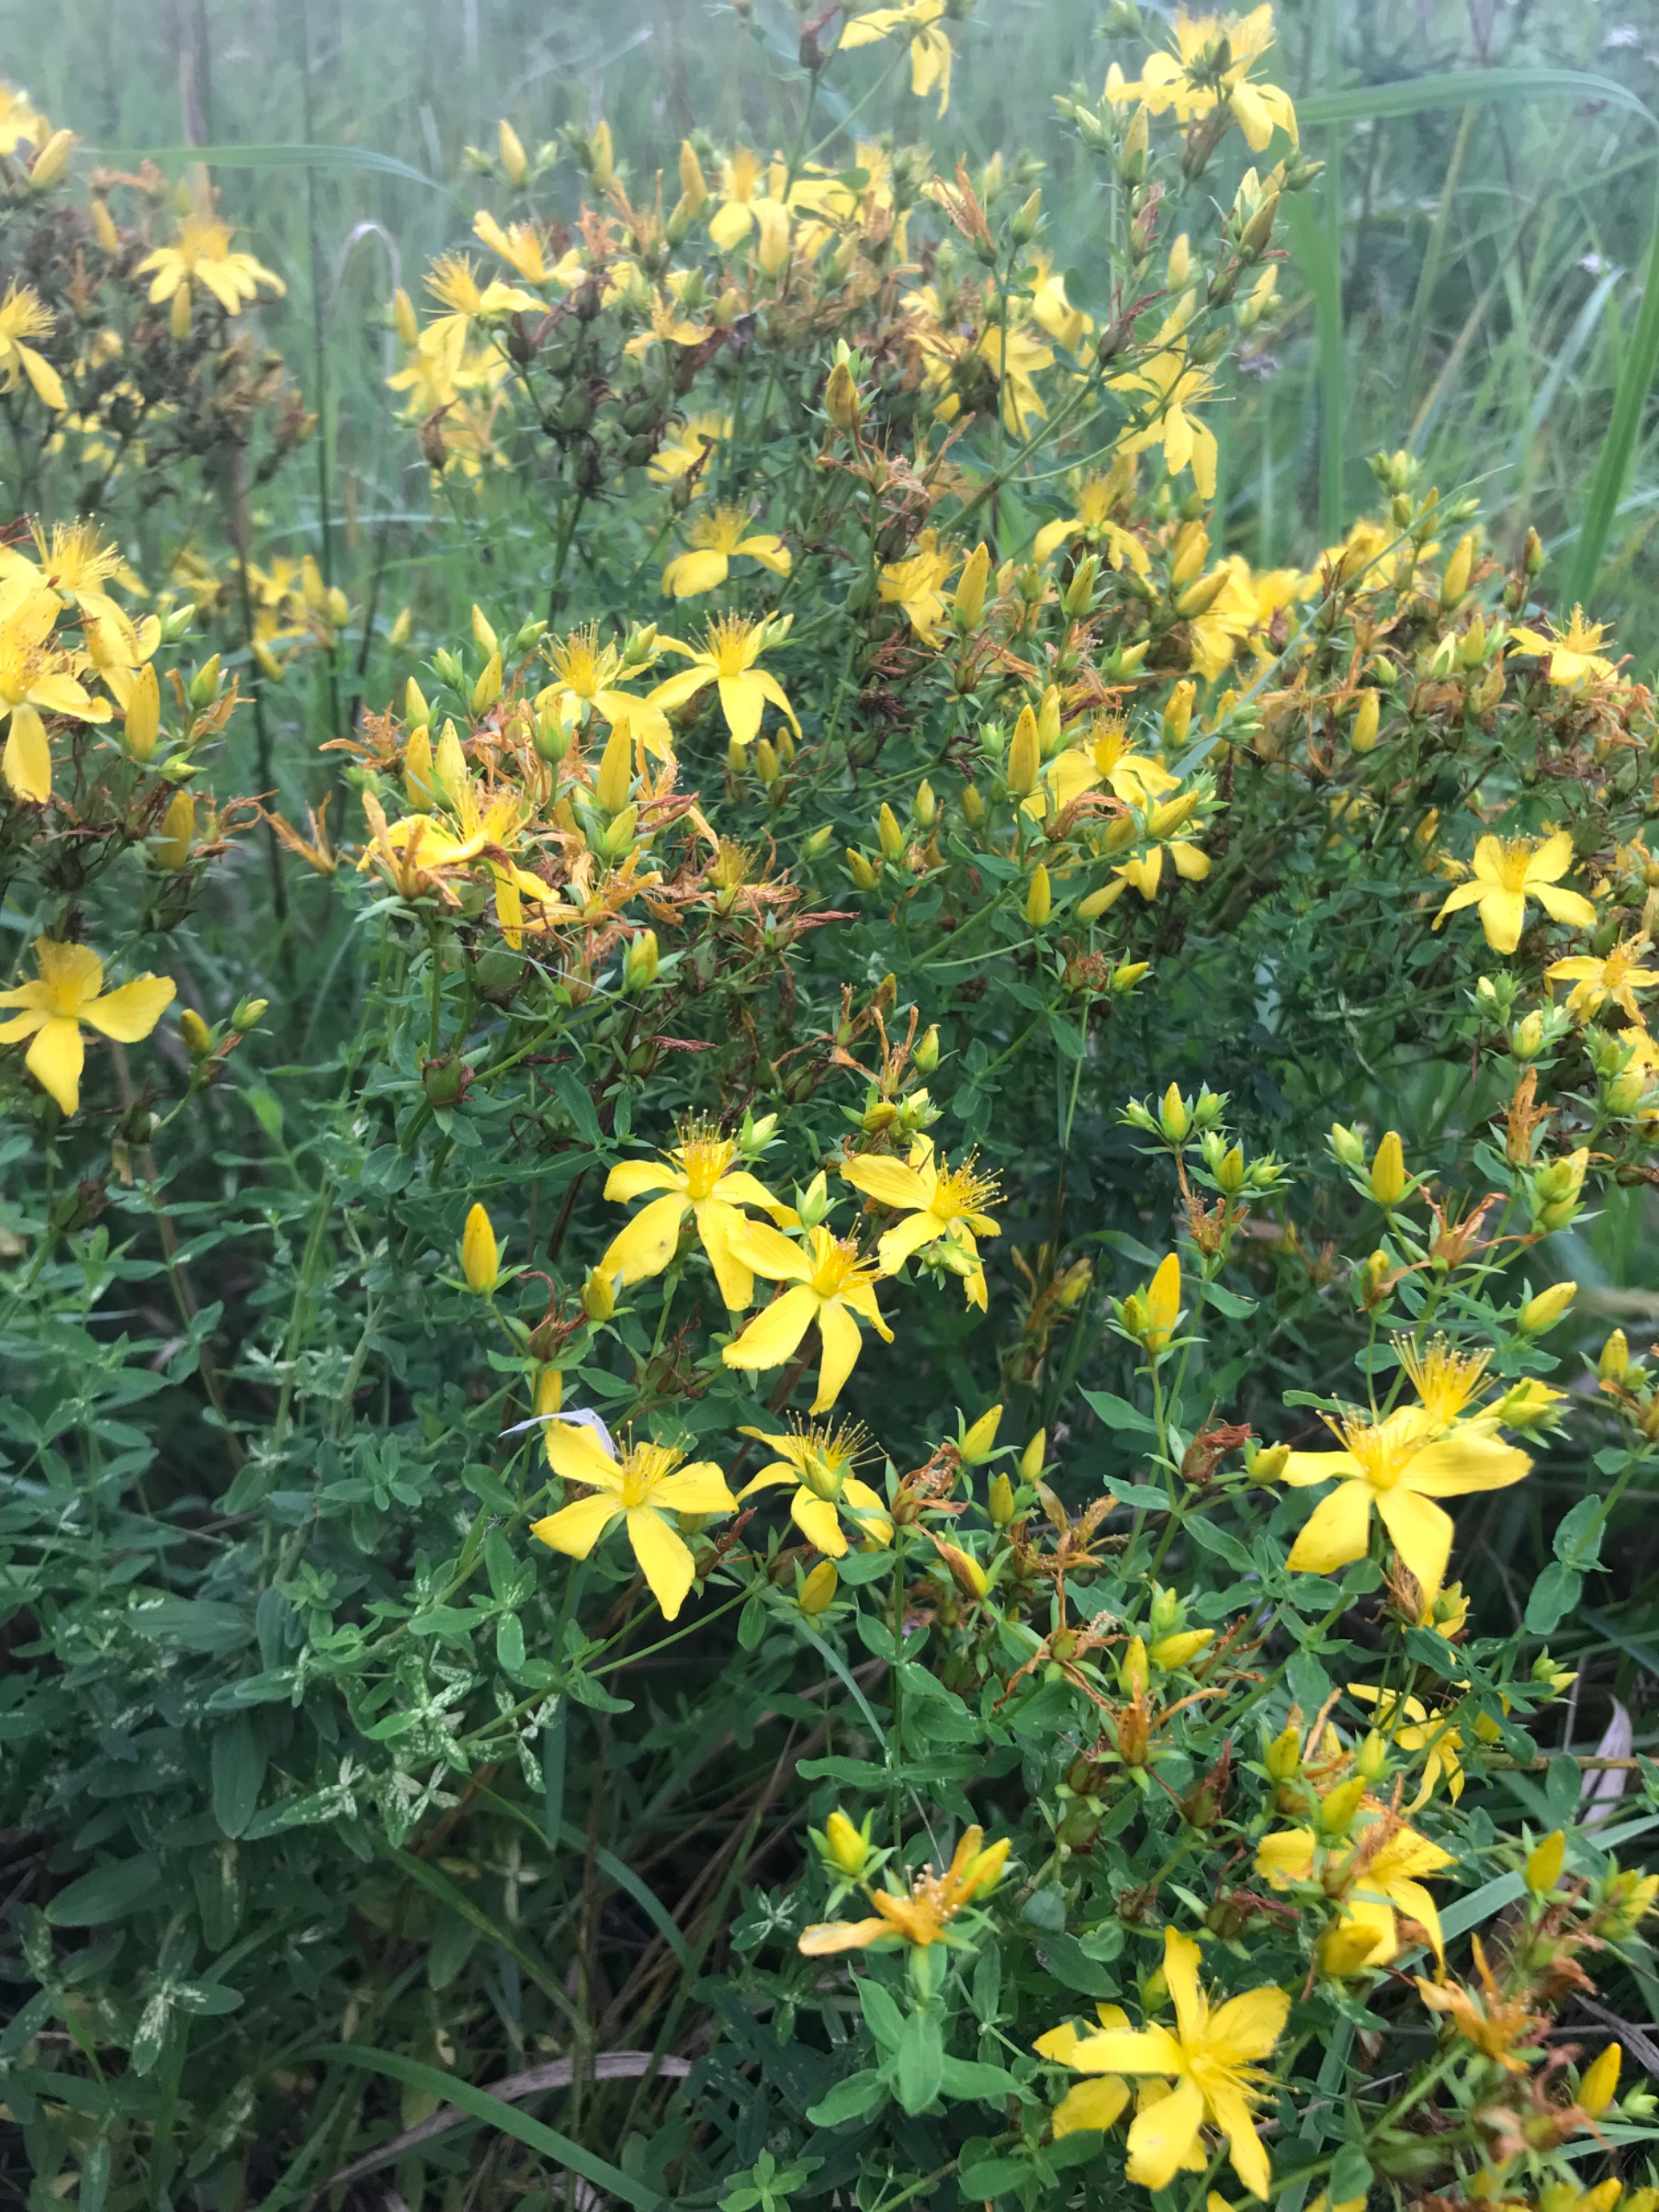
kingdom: Plantae
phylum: Tracheophyta
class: Magnoliopsida
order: Malpighiales
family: Hypericaceae
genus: Hypericum
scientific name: Hypericum perforatum
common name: Prikbladet perikon
